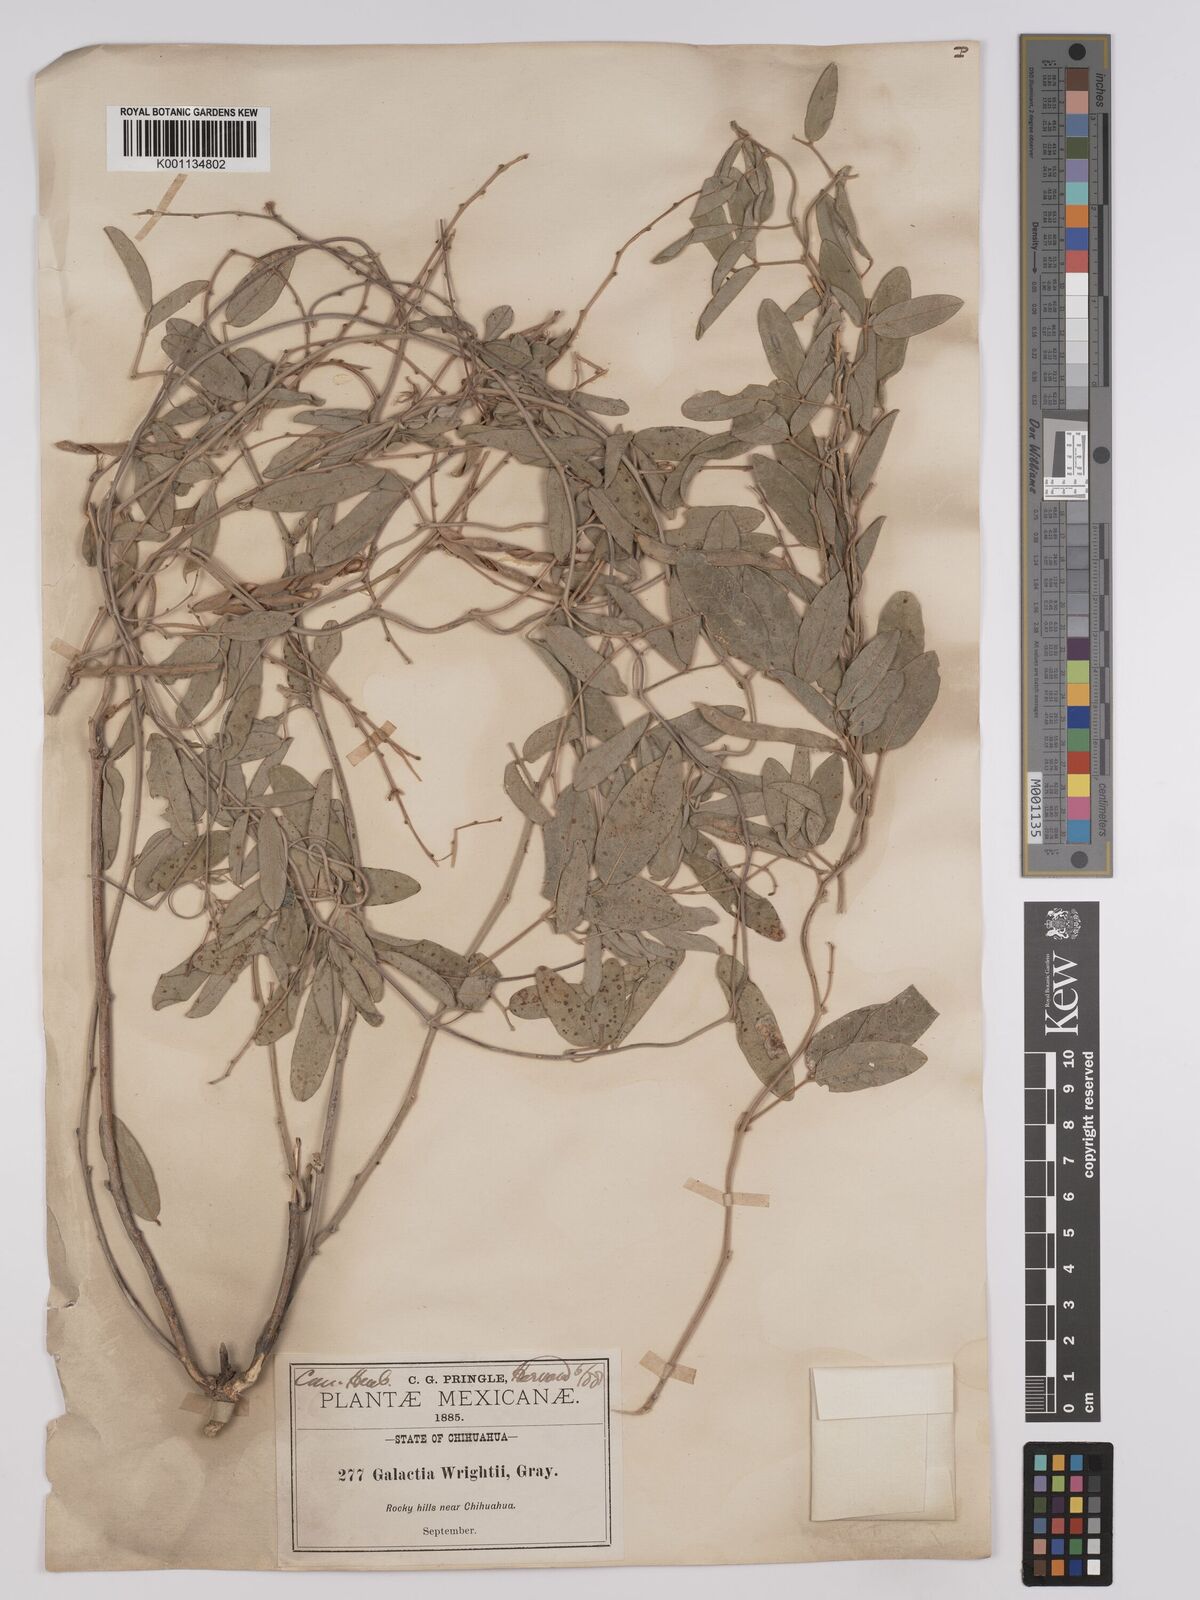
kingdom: Plantae
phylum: Tracheophyta
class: Magnoliopsida
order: Fabales
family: Fabaceae
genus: Galactia
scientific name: Galactia wrightii
